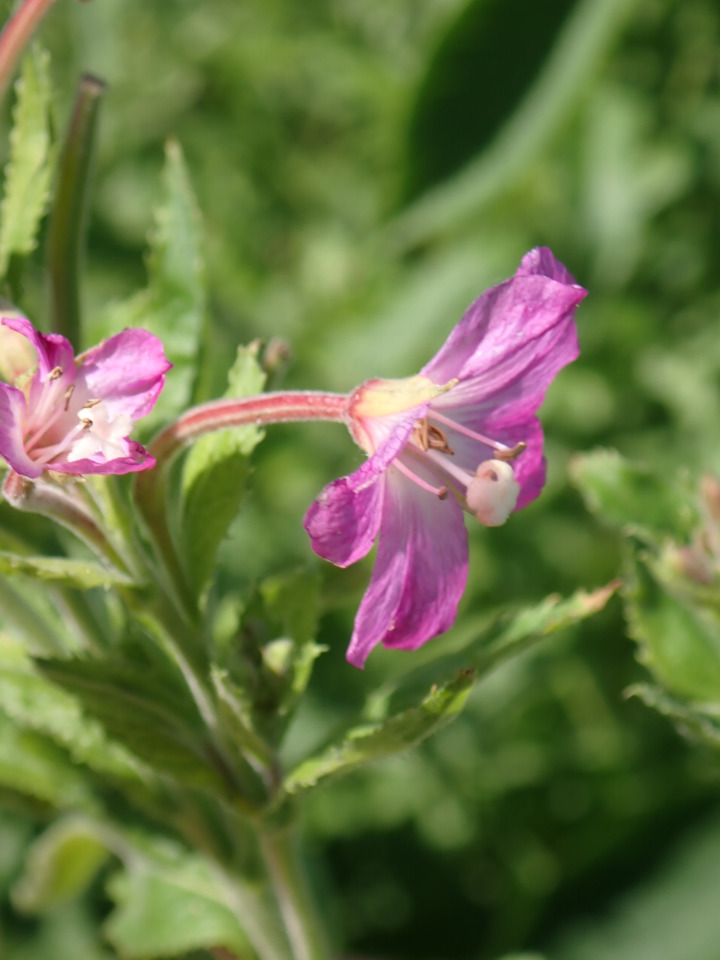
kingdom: Plantae
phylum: Tracheophyta
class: Magnoliopsida
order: Myrtales
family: Onagraceae
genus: Epilobium
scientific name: Epilobium hirsutum
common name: Lådden dueurt
